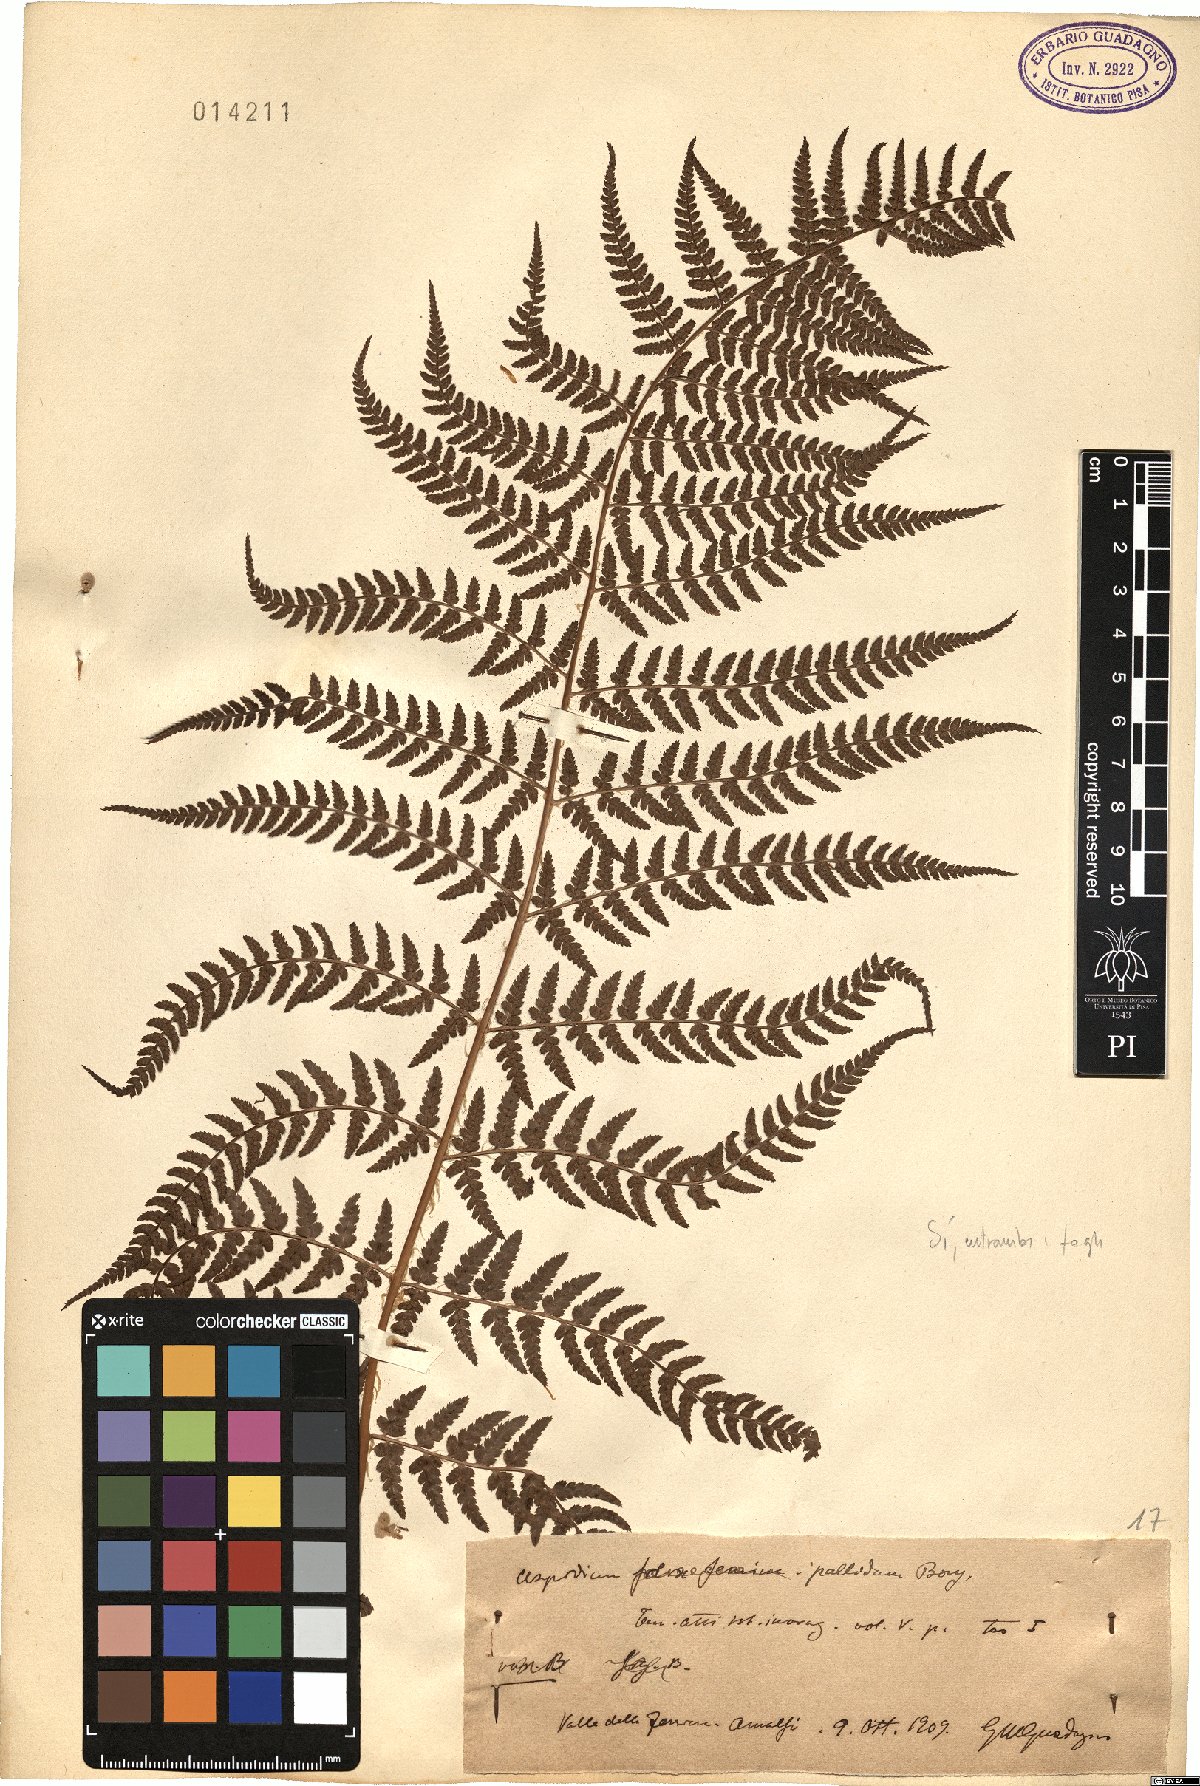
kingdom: Plantae
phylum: Tracheophyta
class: Polypodiopsida
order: Polypodiales
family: Dryopteridaceae
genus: Dryopteris
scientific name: Dryopteris pallida
